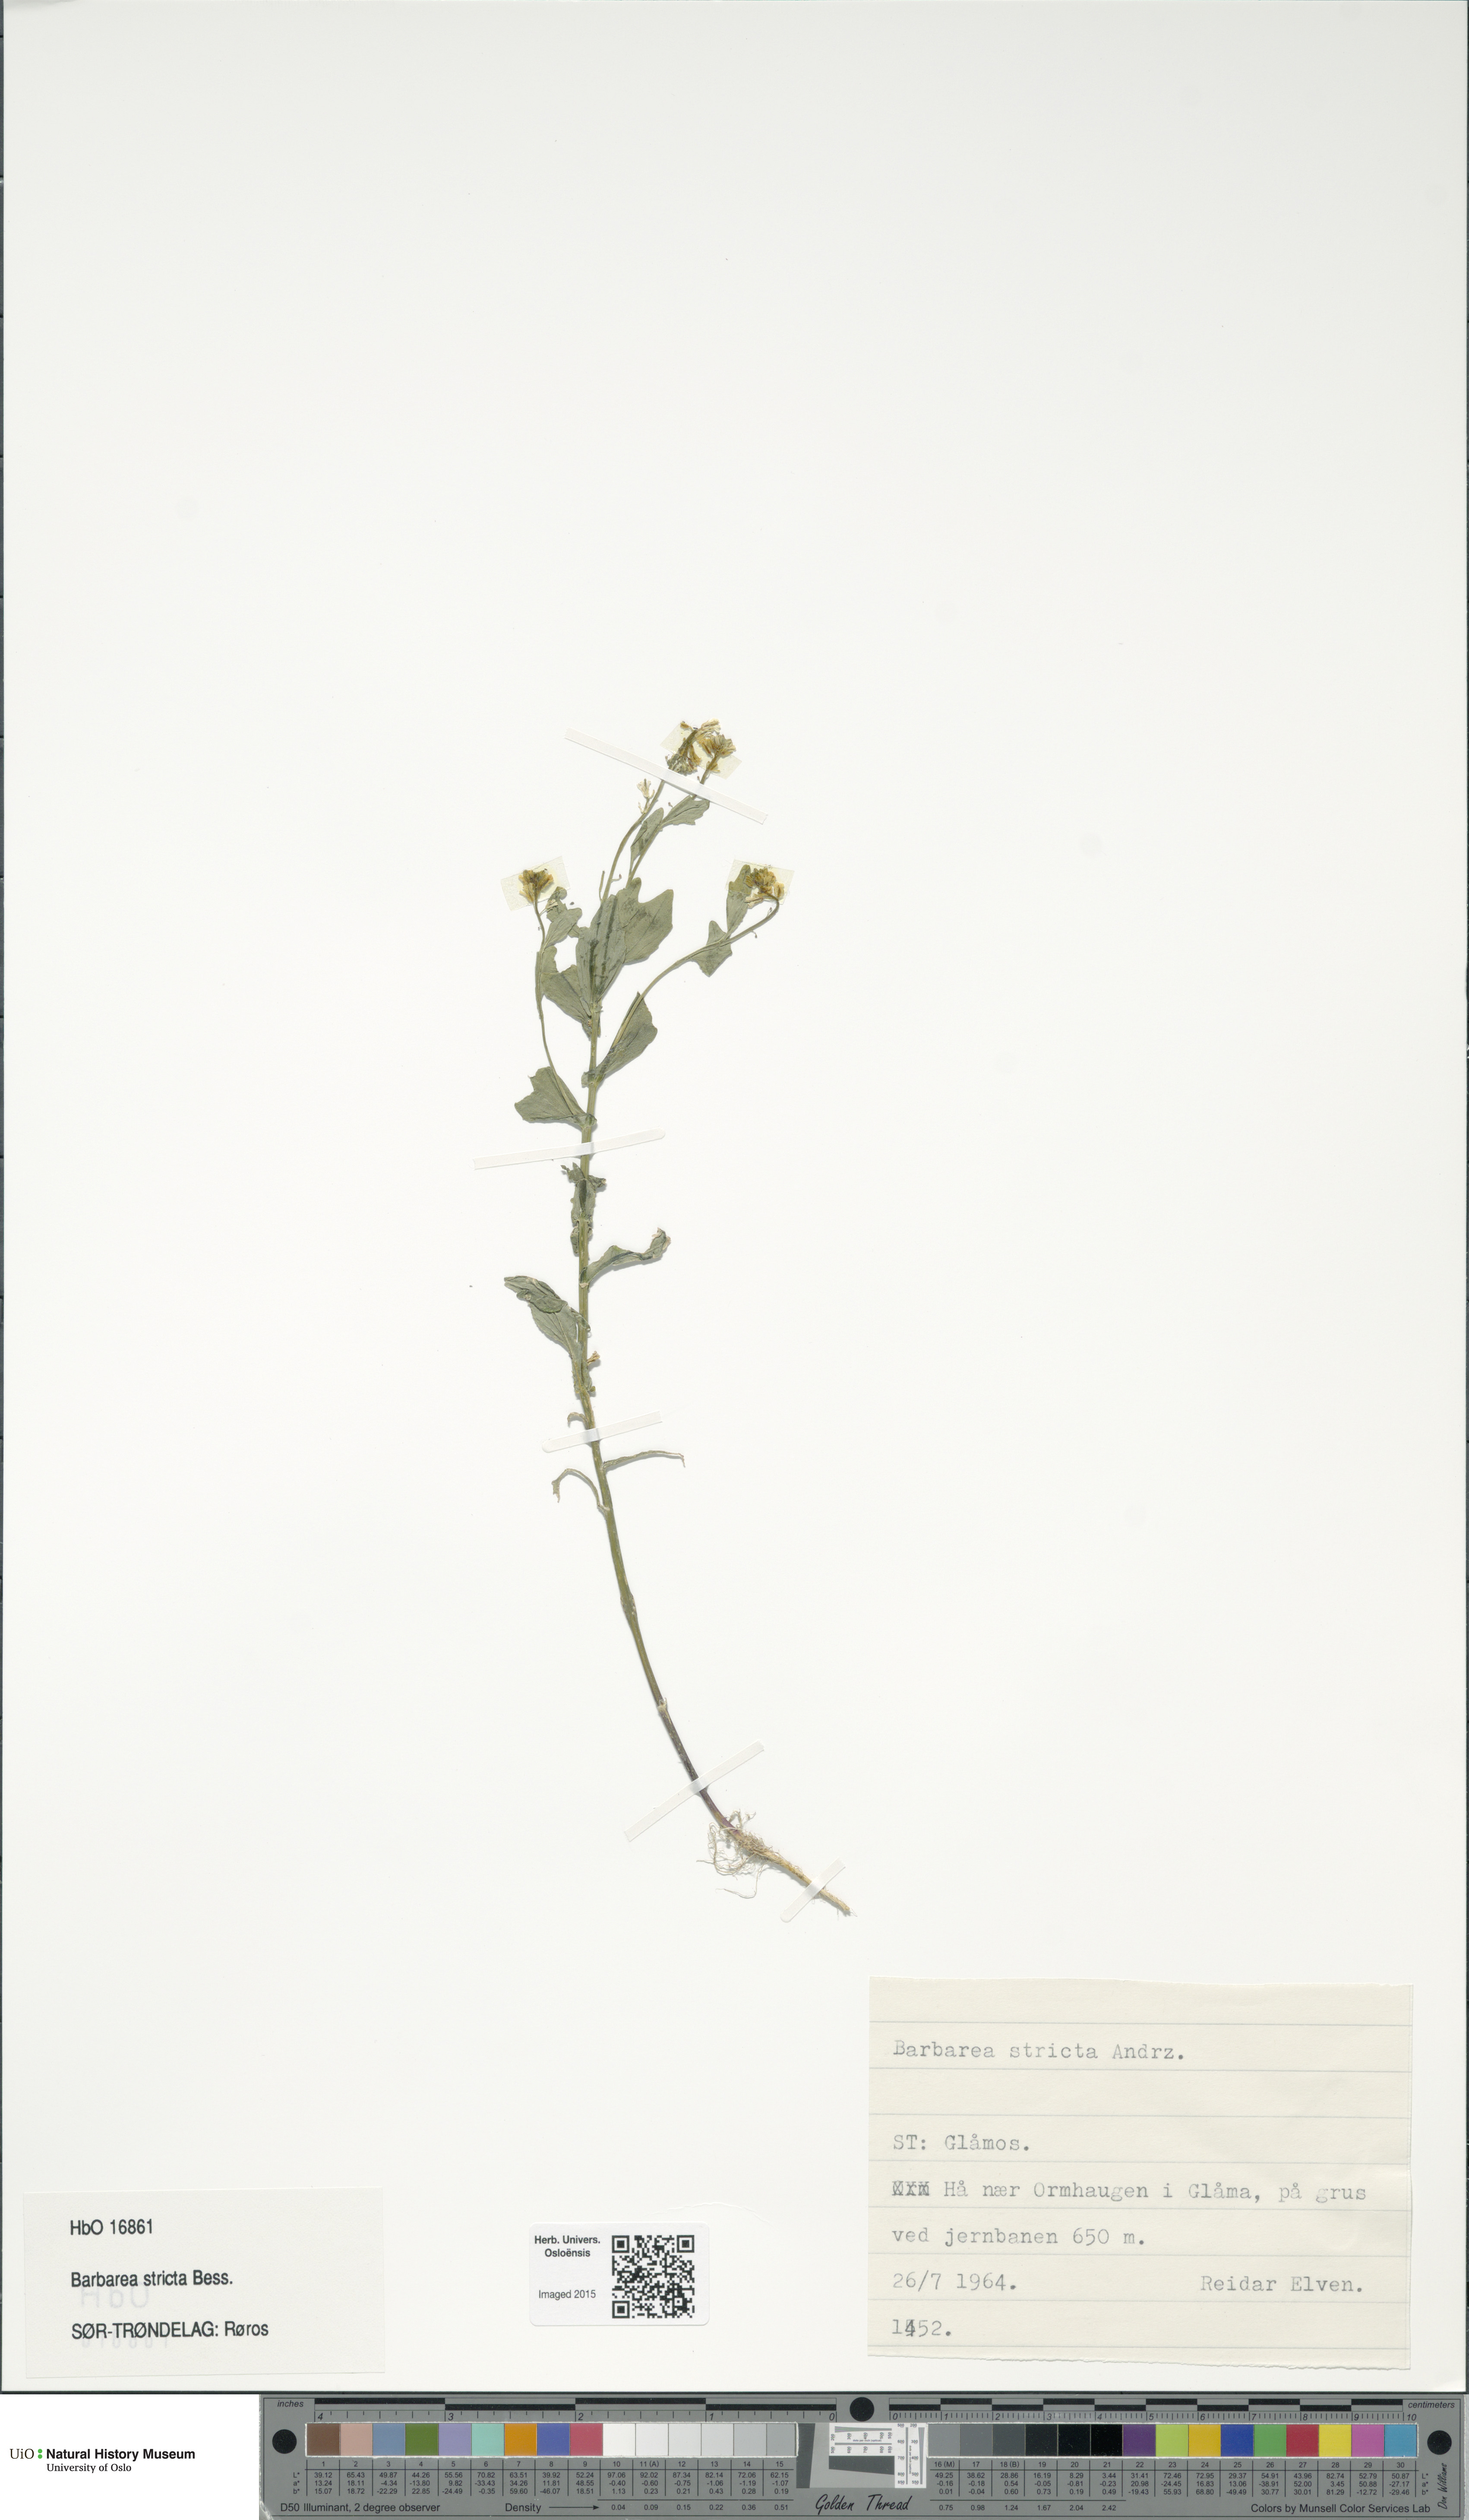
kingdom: Plantae
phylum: Tracheophyta
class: Magnoliopsida
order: Brassicales
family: Brassicaceae
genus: Barbarea
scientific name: Barbarea stricta
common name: Small-flowered winter-cress
